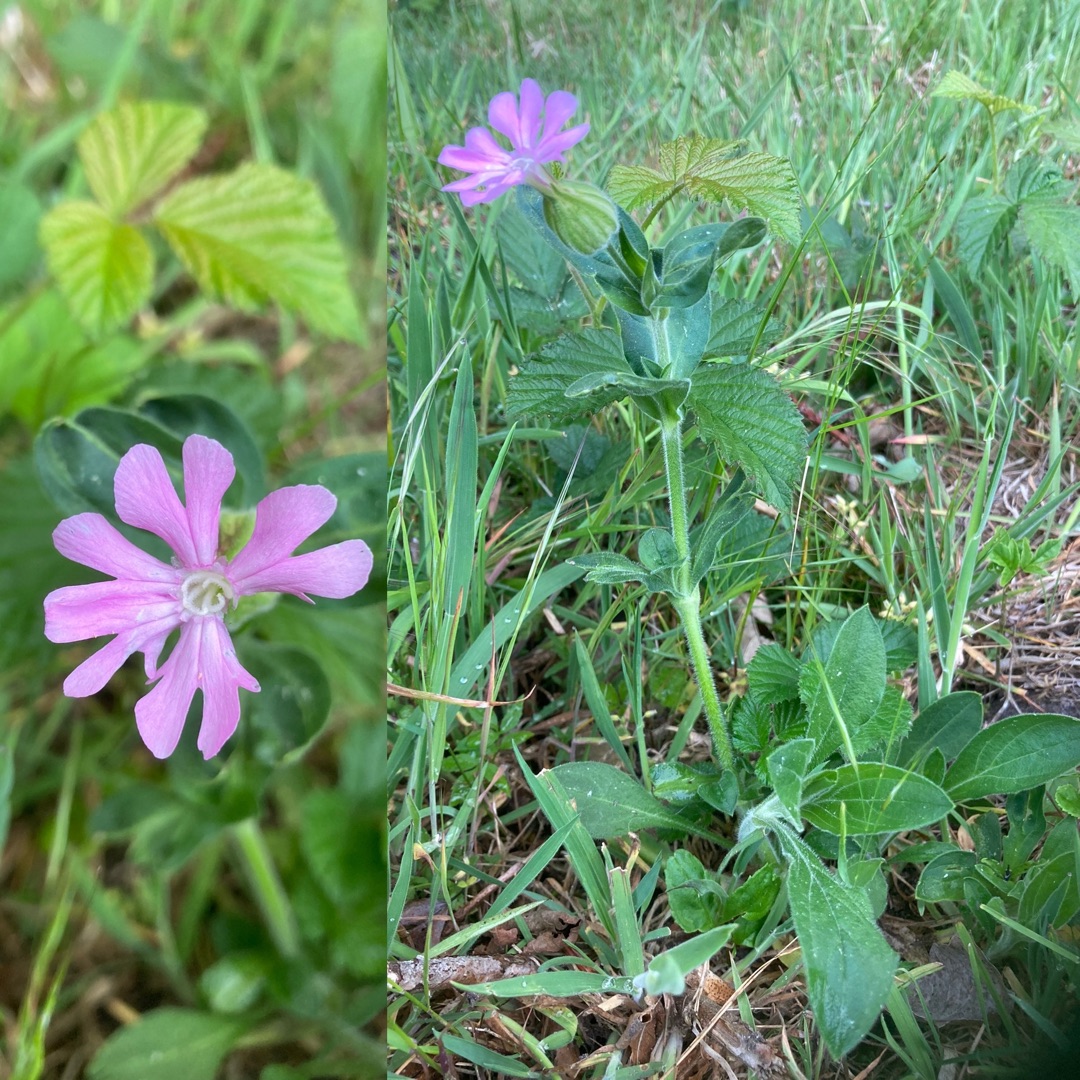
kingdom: Plantae
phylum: Tracheophyta
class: Magnoliopsida
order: Caryophyllales
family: Caryophyllaceae
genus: Silene
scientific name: Silene dioica
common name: Dagpragtstjerne
